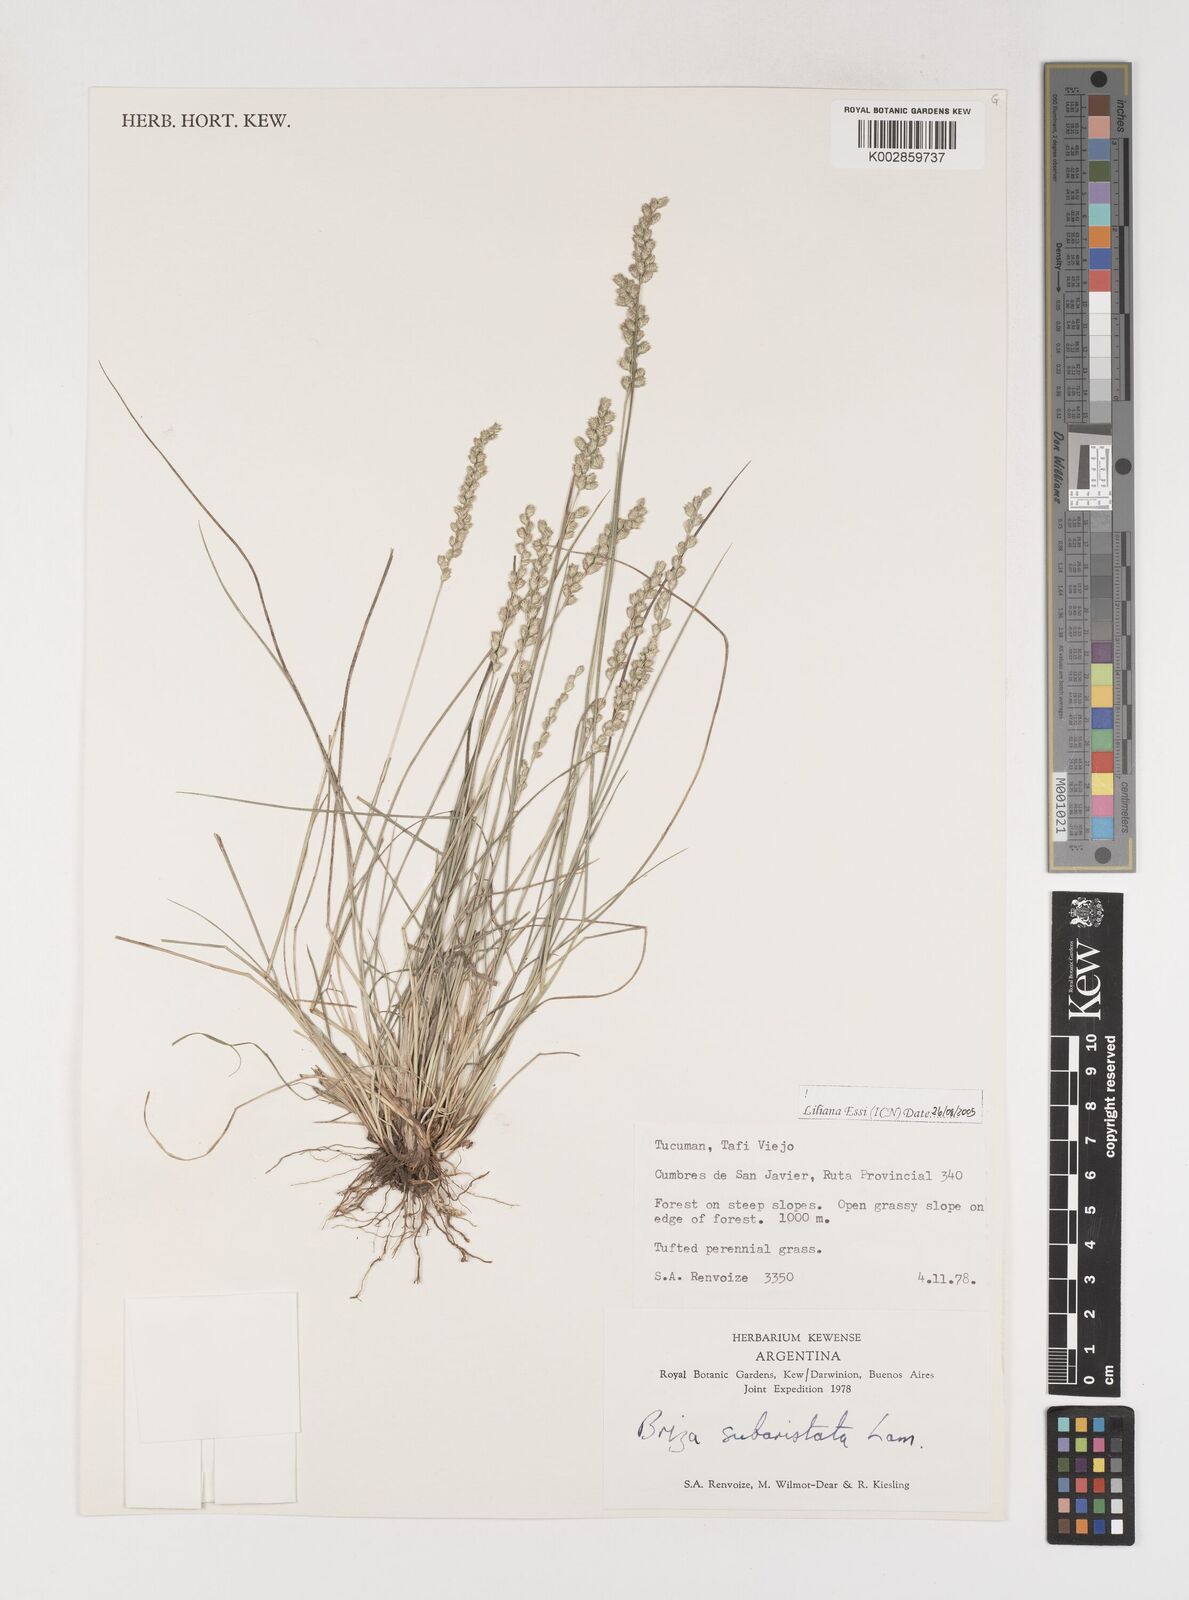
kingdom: Plantae
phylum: Tracheophyta
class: Liliopsida
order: Poales
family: Poaceae
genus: Chascolytrum
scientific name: Chascolytrum subaristatum
